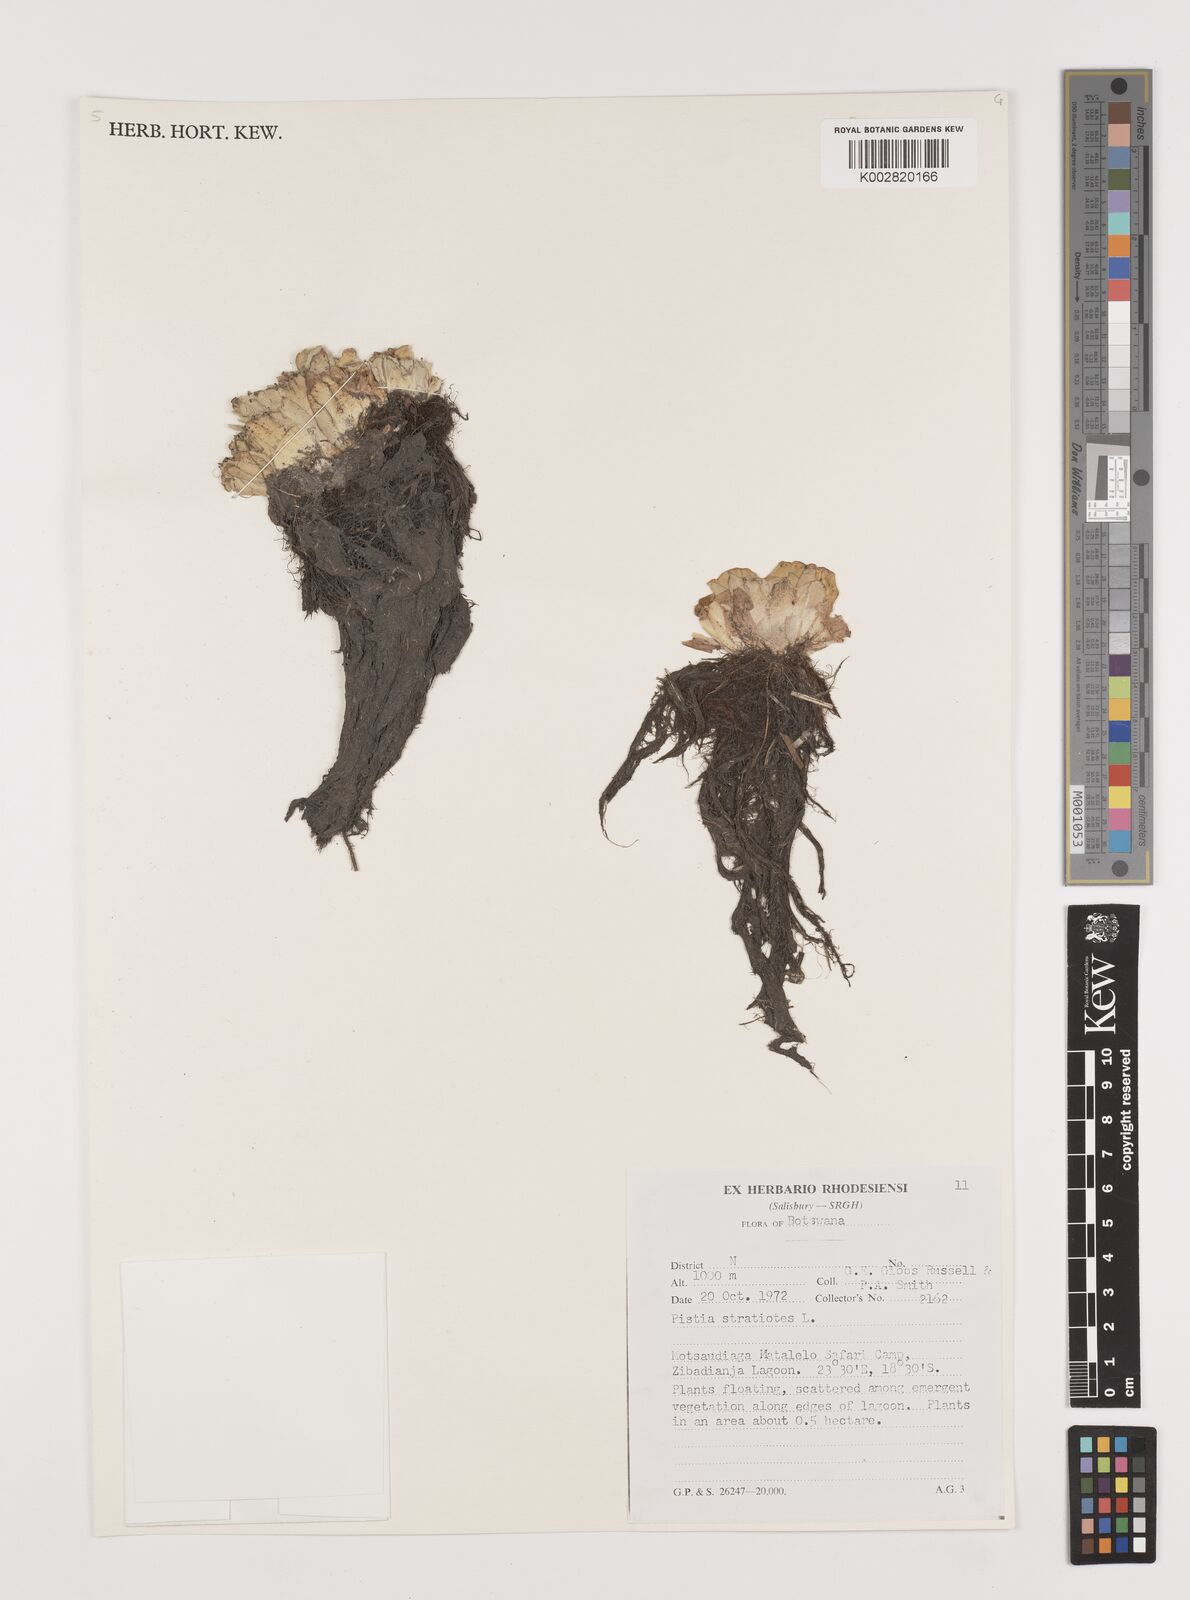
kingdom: Plantae
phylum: Tracheophyta
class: Liliopsida
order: Alismatales
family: Araceae
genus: Pistia
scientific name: Pistia stratiotes
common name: Water lettuce
